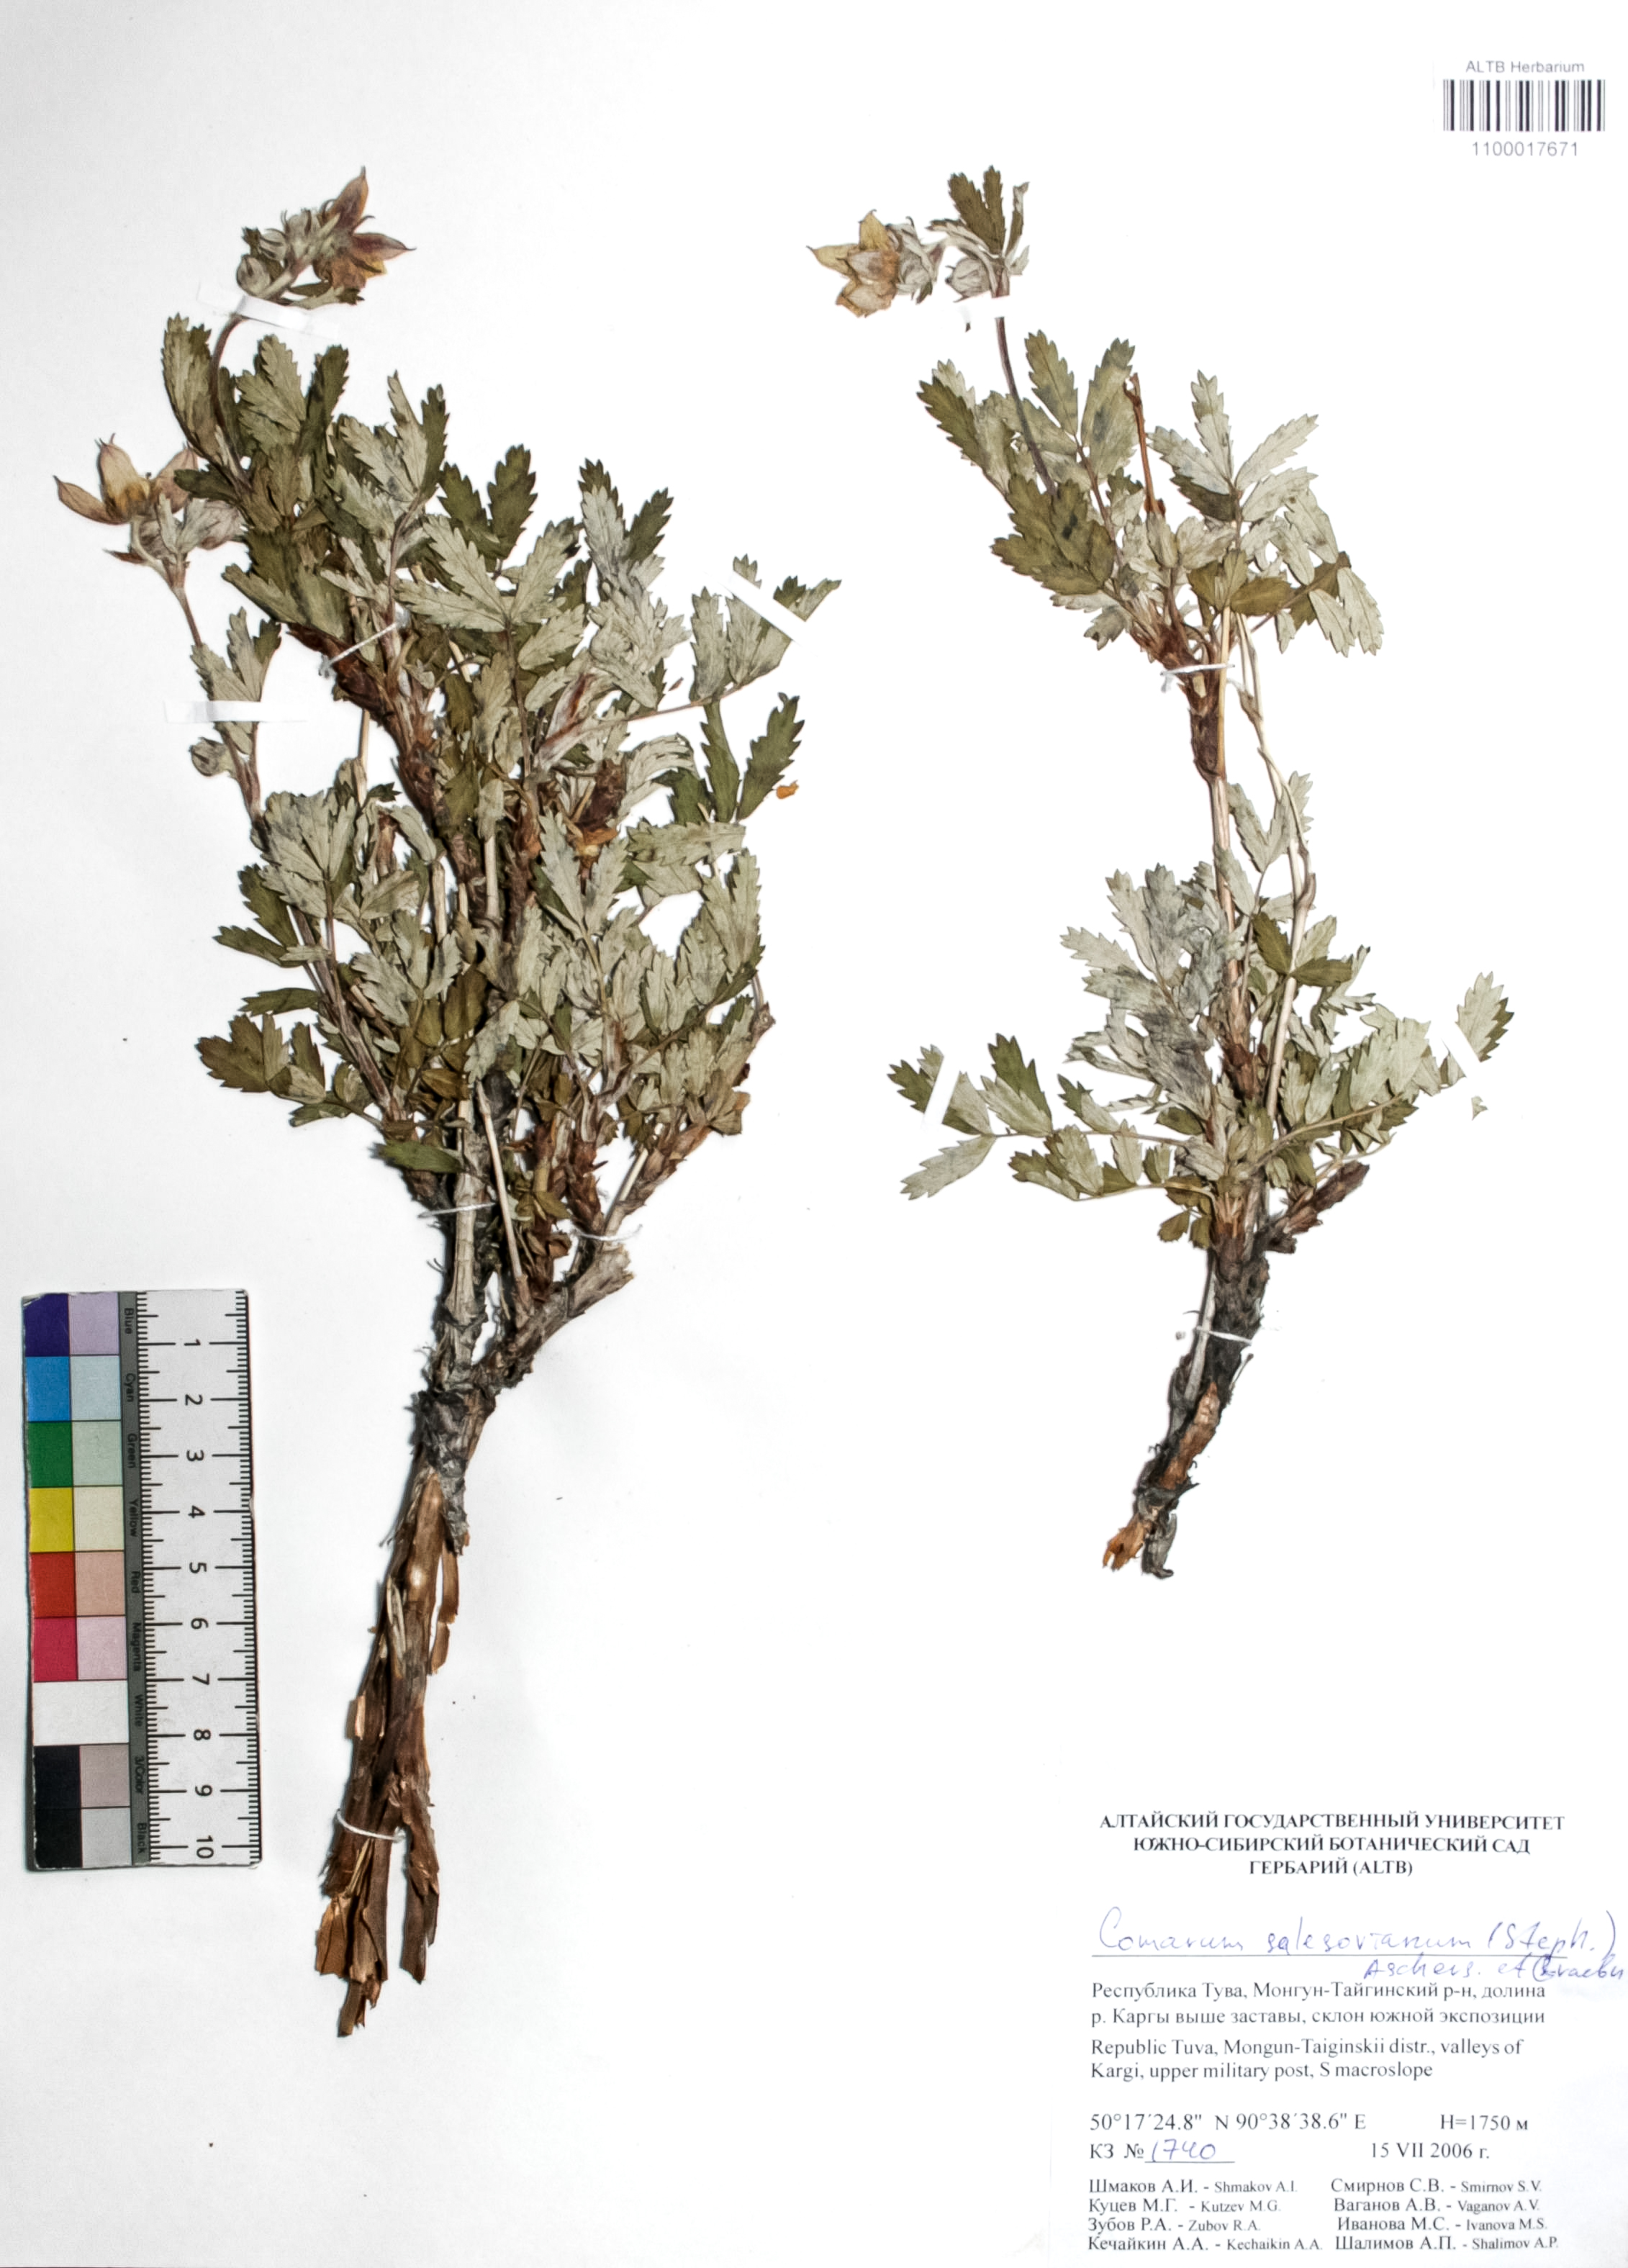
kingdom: Plantae
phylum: Tracheophyta
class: Magnoliopsida
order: Rosales
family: Rosaceae
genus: Farinopsis
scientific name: Farinopsis salesoviana
